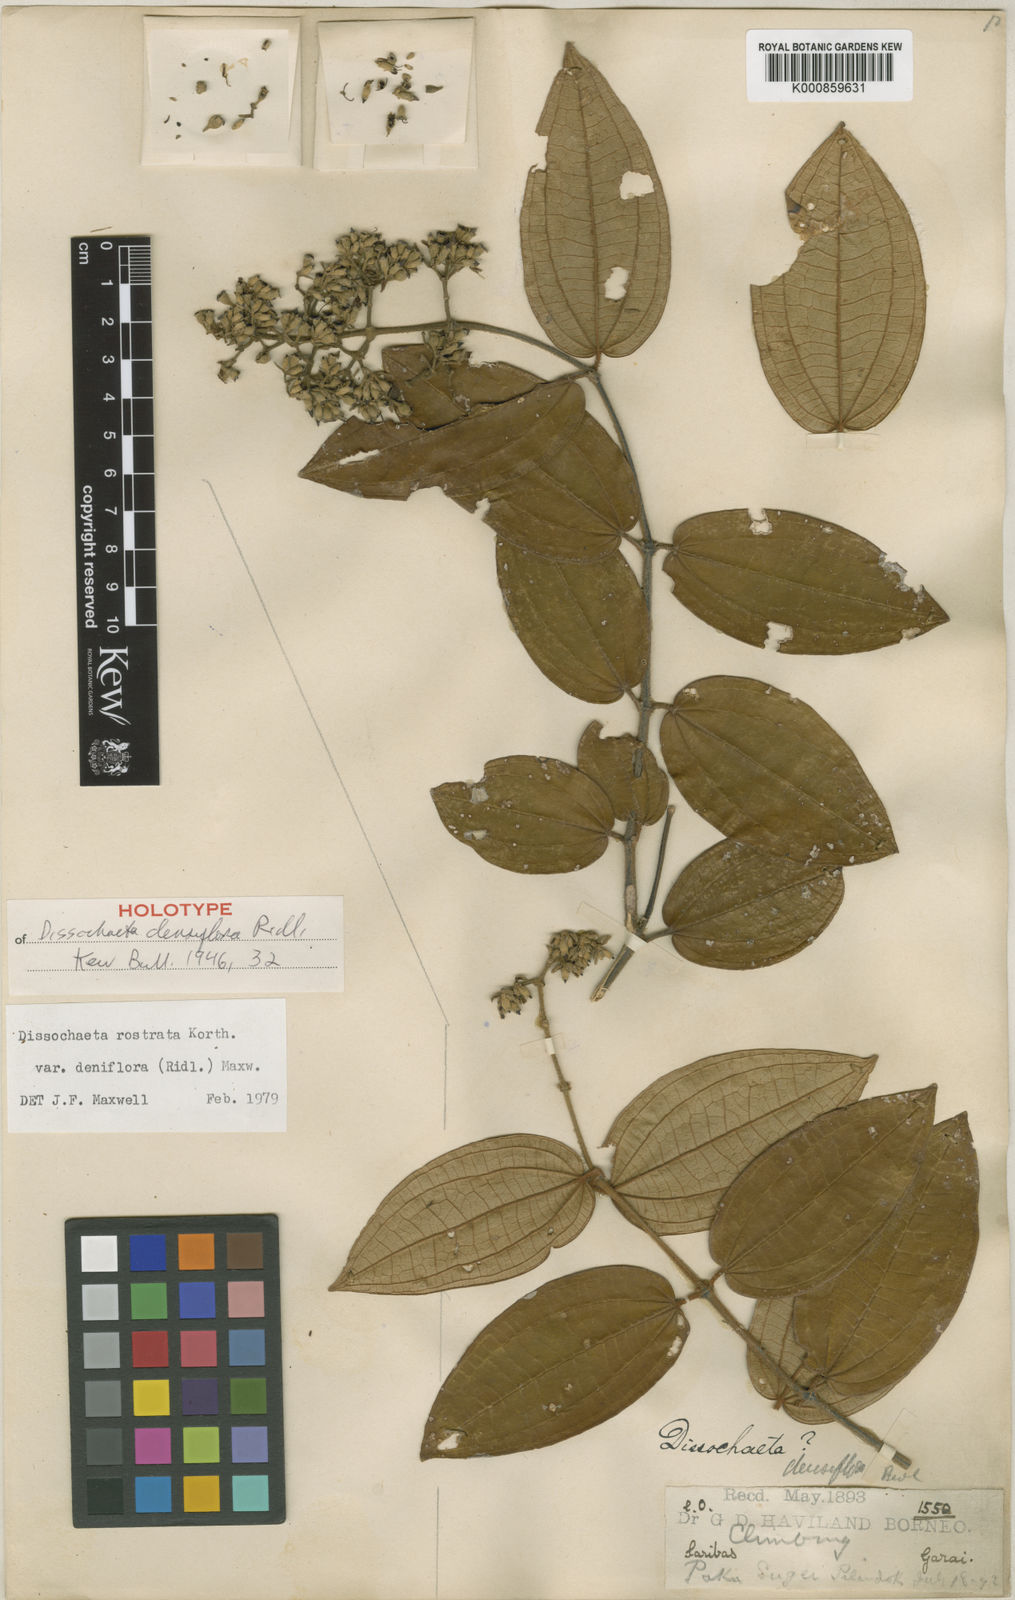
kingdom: Plantae
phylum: Tracheophyta
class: Magnoliopsida
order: Myrtales
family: Melastomataceae
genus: Dissochaeta
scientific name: Dissochaeta densiflora
